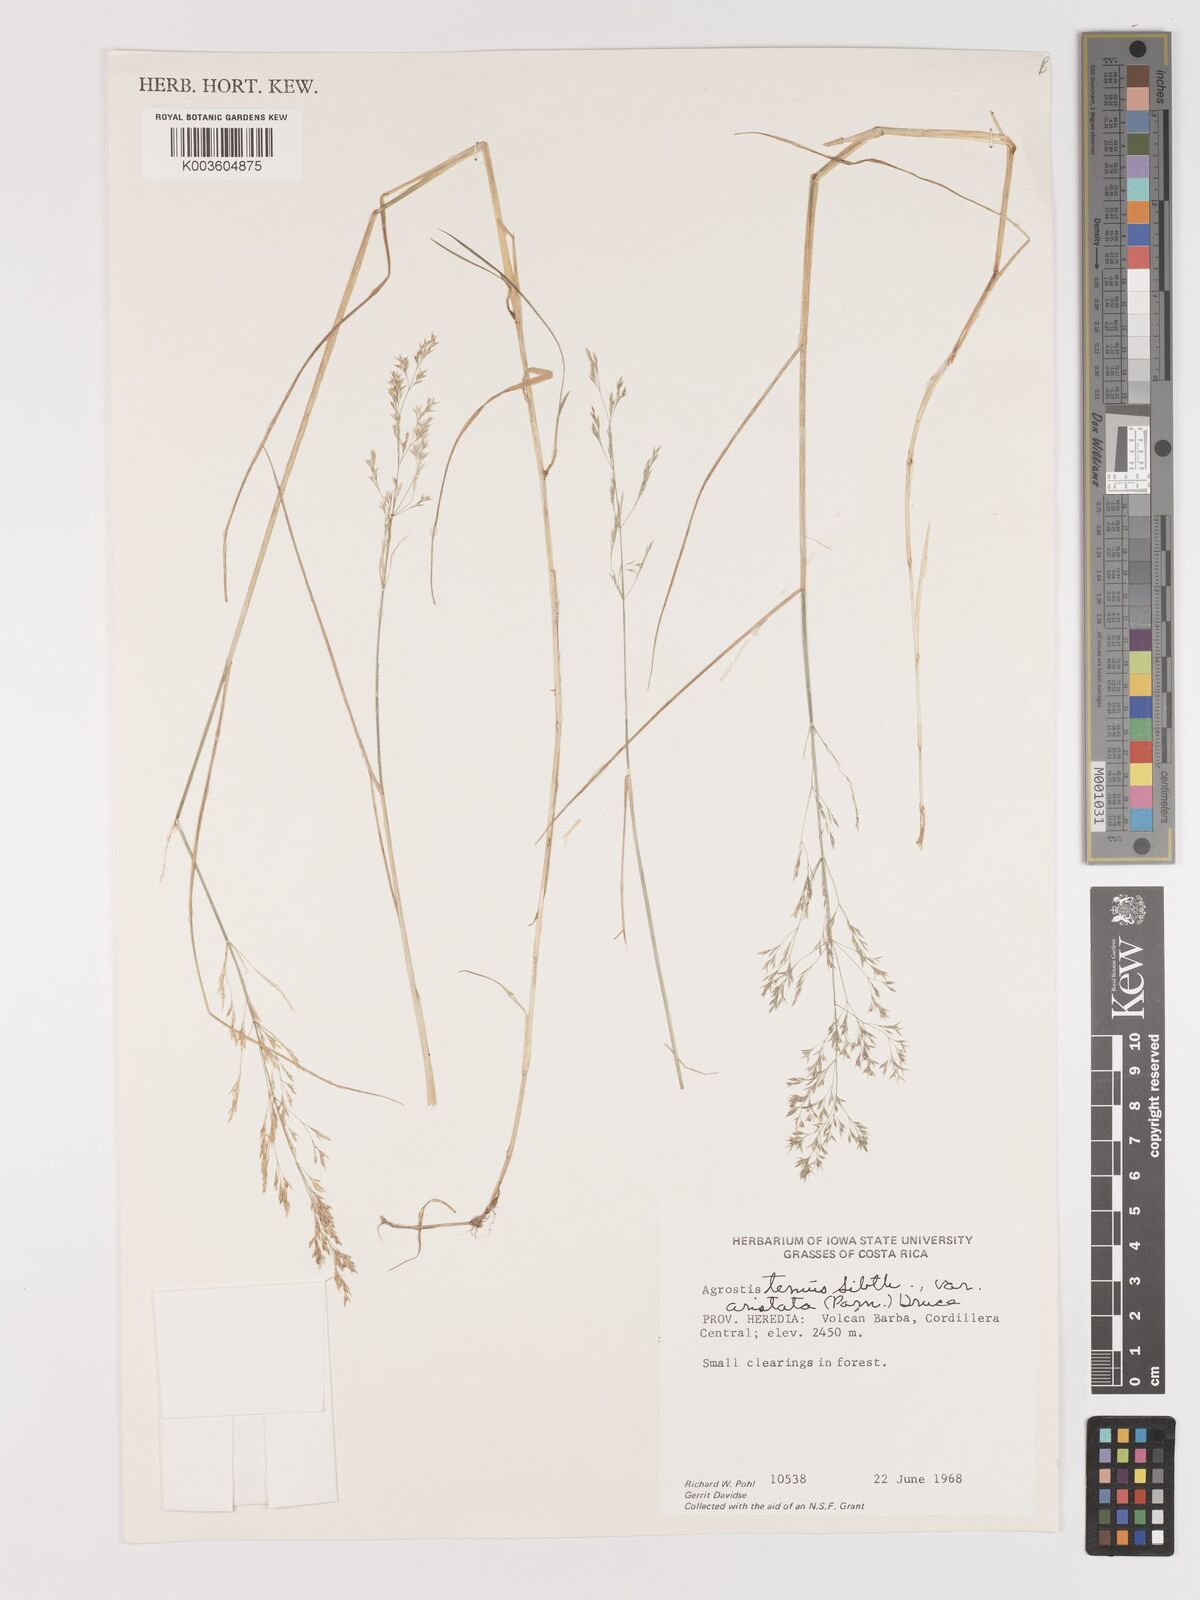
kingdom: Plantae
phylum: Tracheophyta
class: Liliopsida
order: Poales
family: Poaceae
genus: Agrostis
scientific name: Agrostis capillaris
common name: Colonial bentgrass
